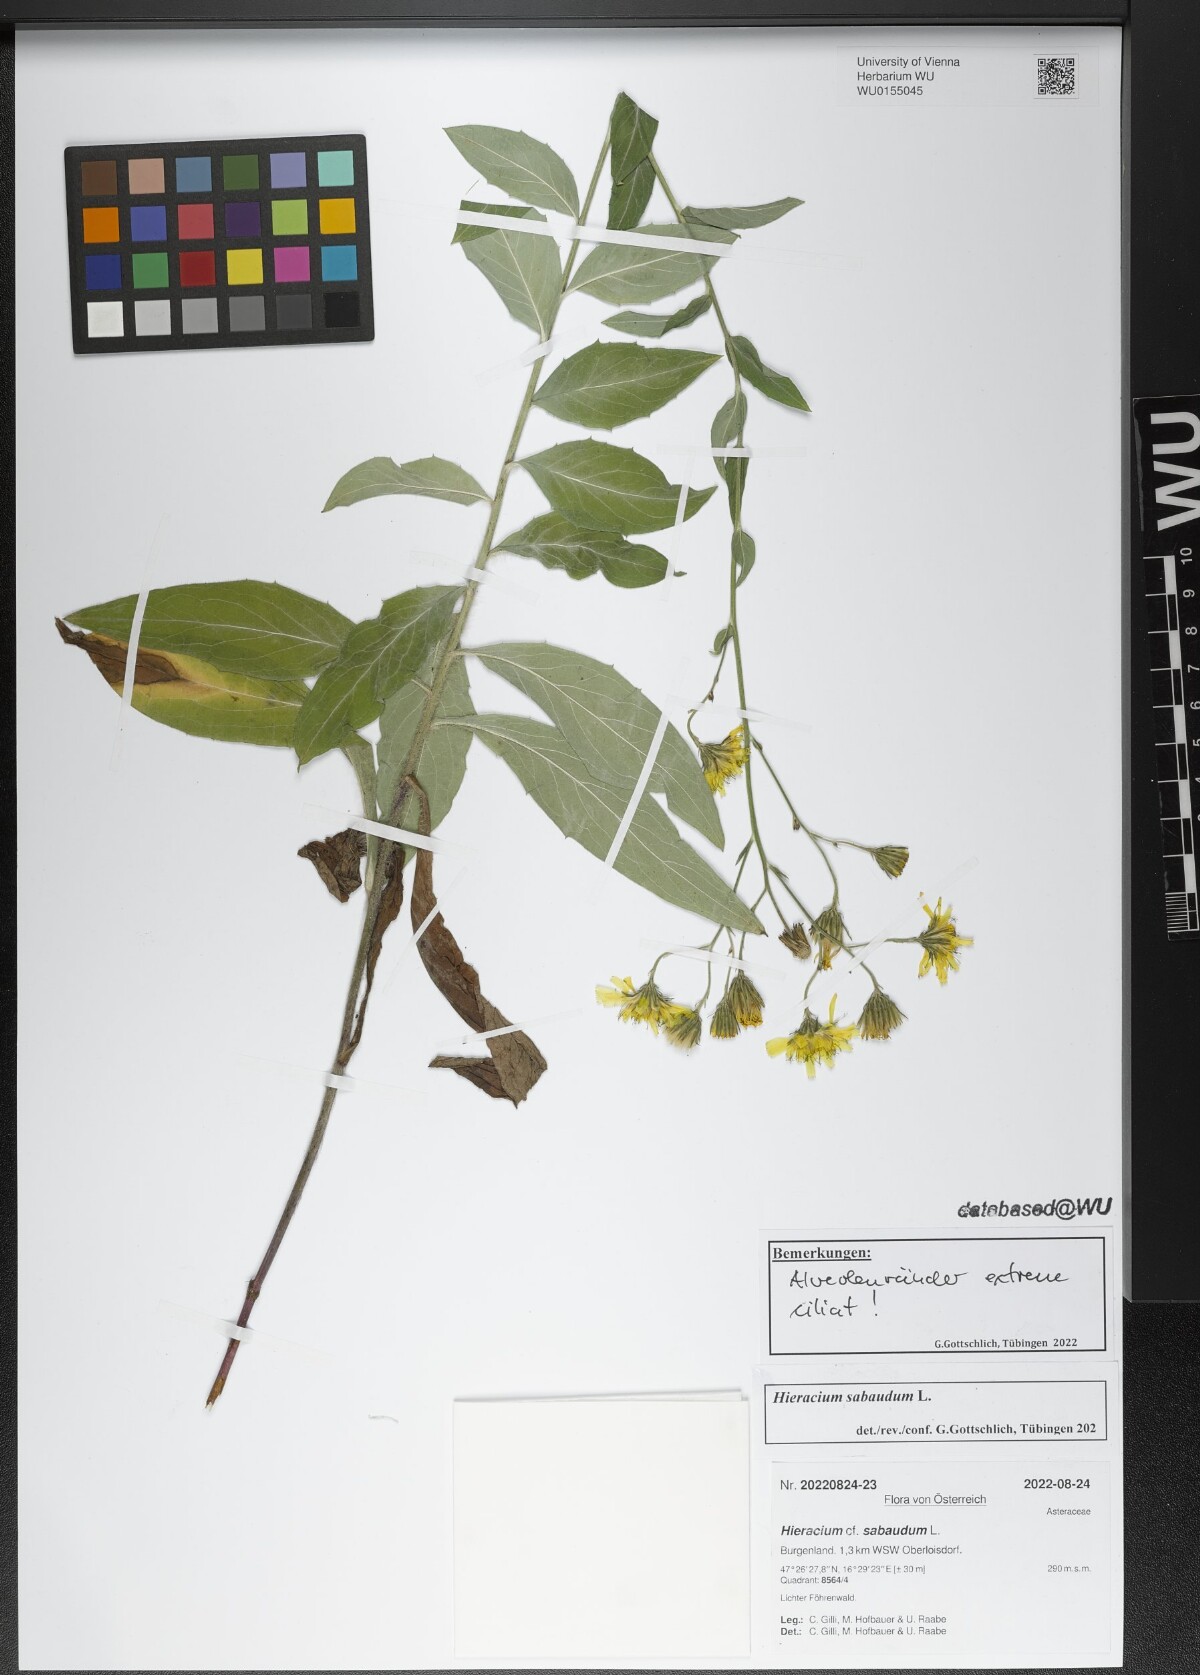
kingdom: Plantae
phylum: Tracheophyta
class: Magnoliopsida
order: Asterales
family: Asteraceae
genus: Hieracium
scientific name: Hieracium sabaudum
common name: New england hawkweed
